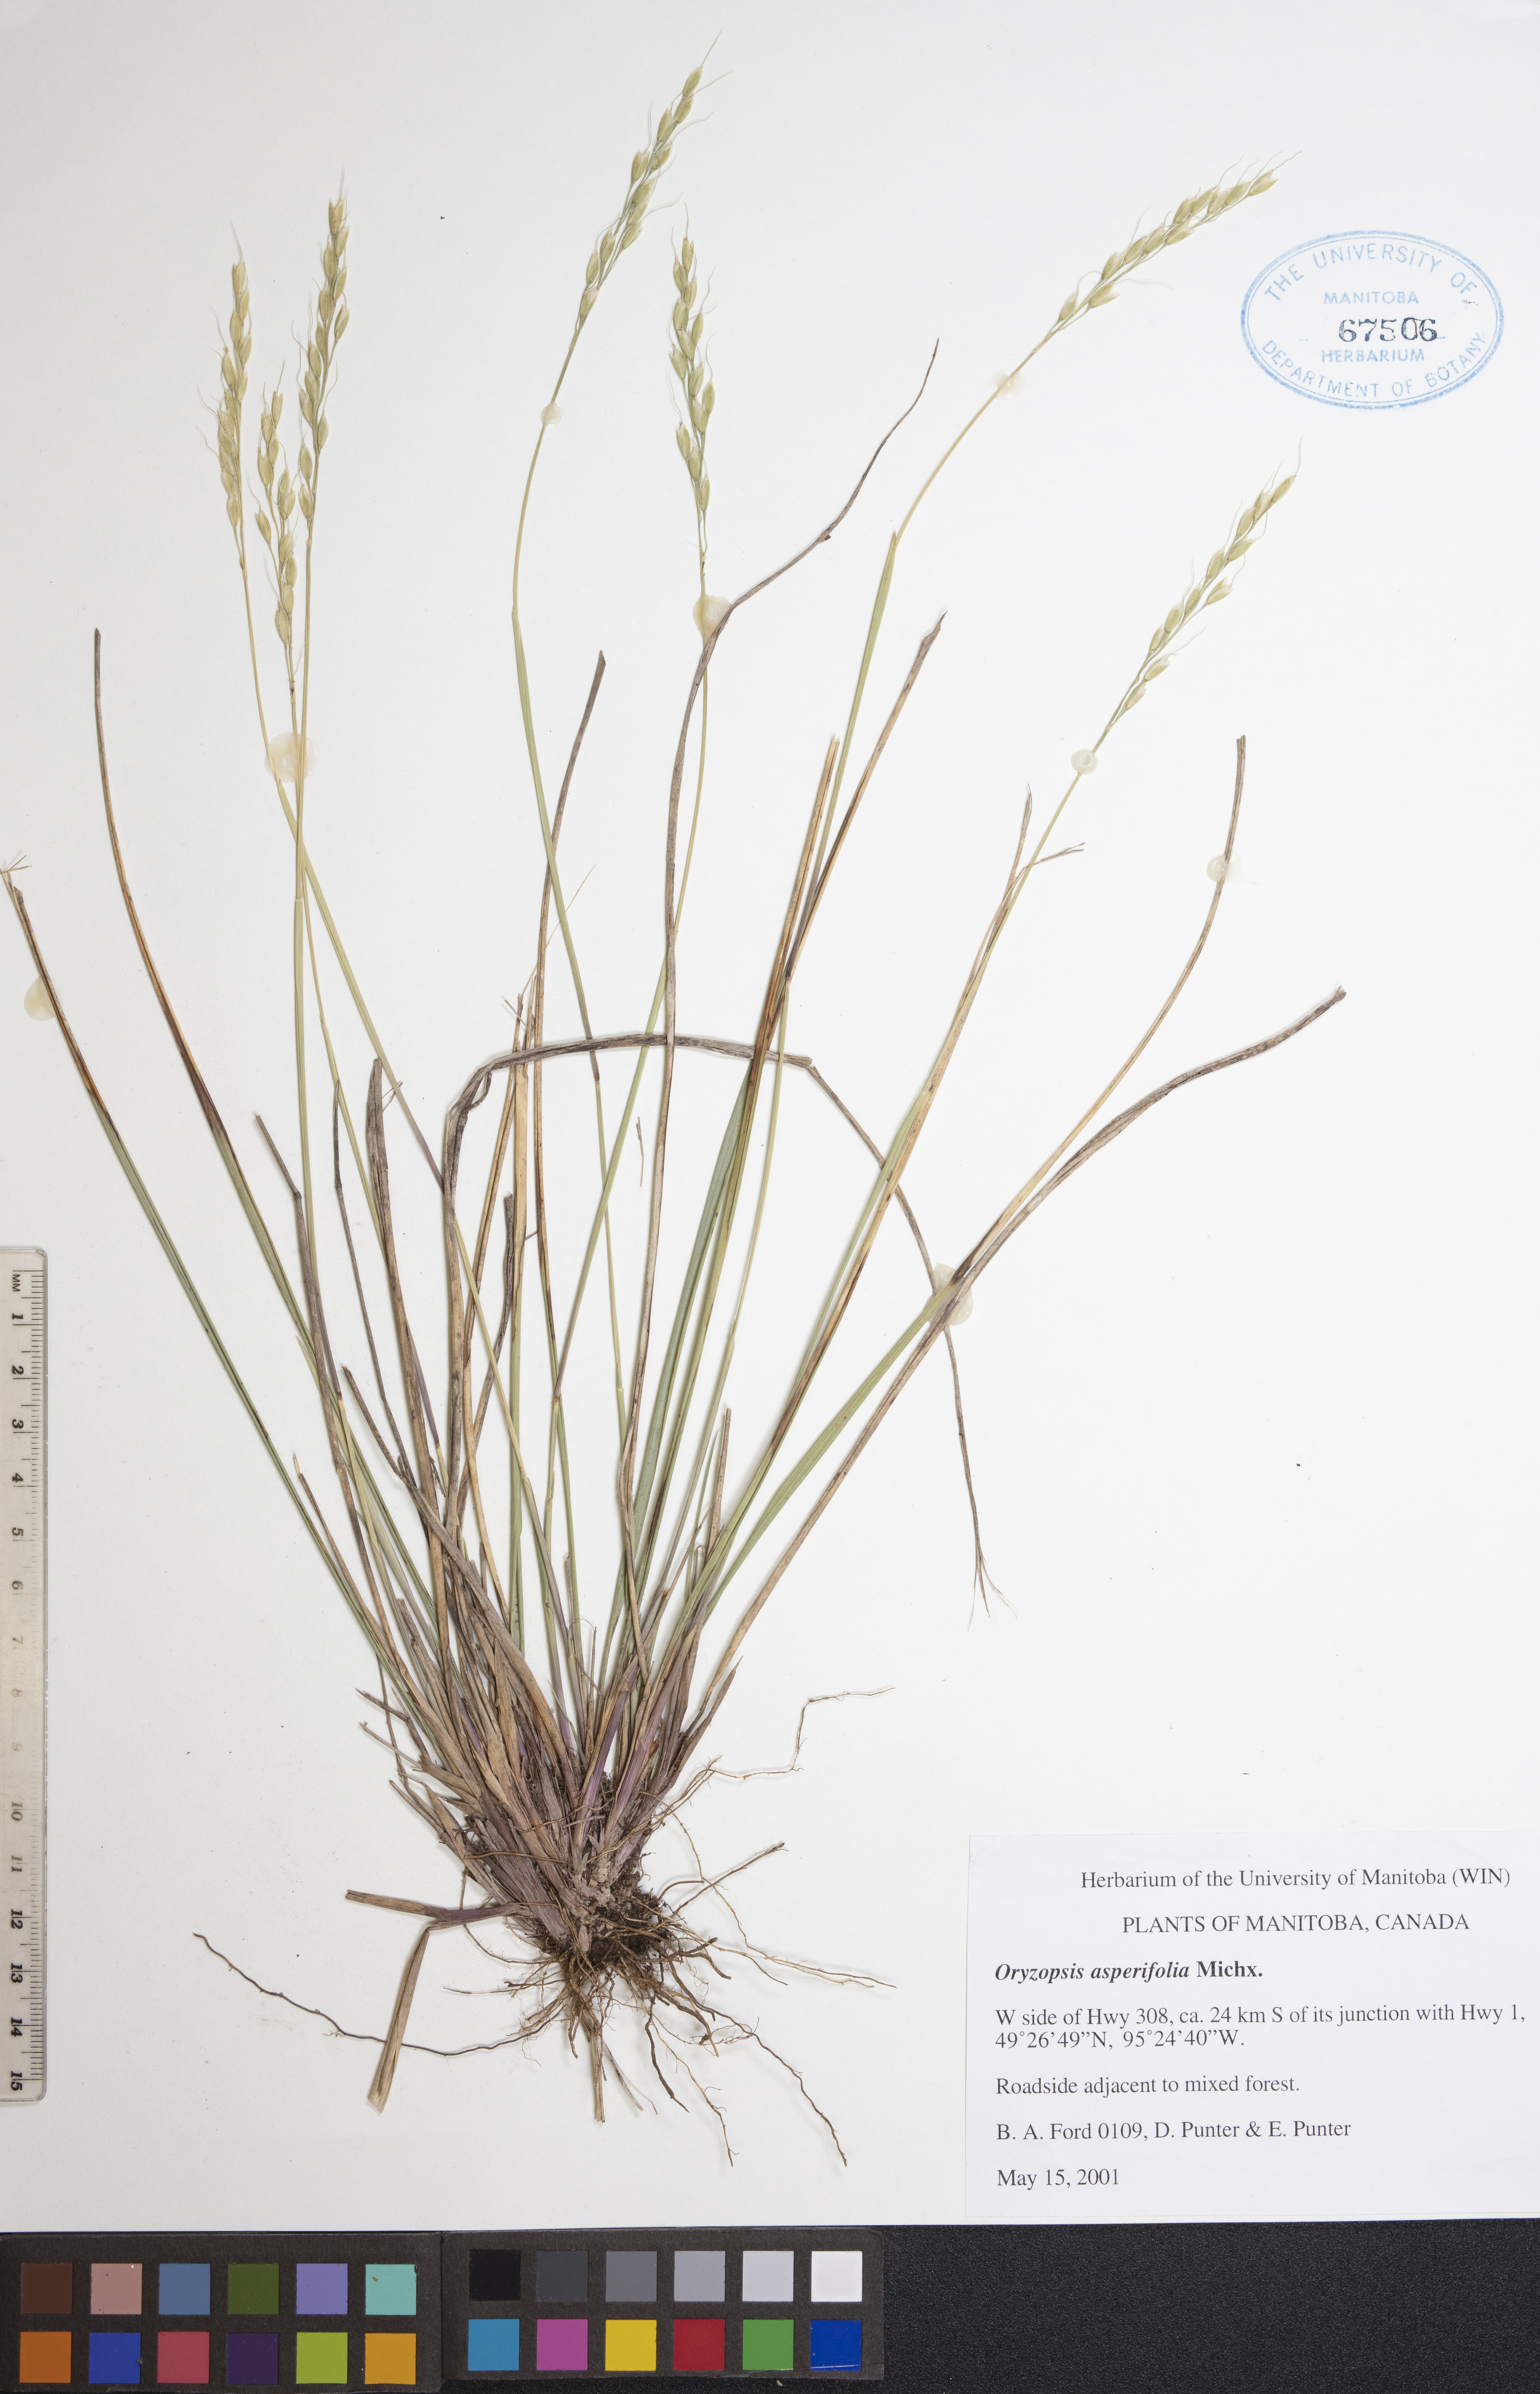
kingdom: Plantae
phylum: Tracheophyta
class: Liliopsida
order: Poales
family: Poaceae
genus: Oryzopsis
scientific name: Oryzopsis asperifolia
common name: Rough-leaved mountain rice
